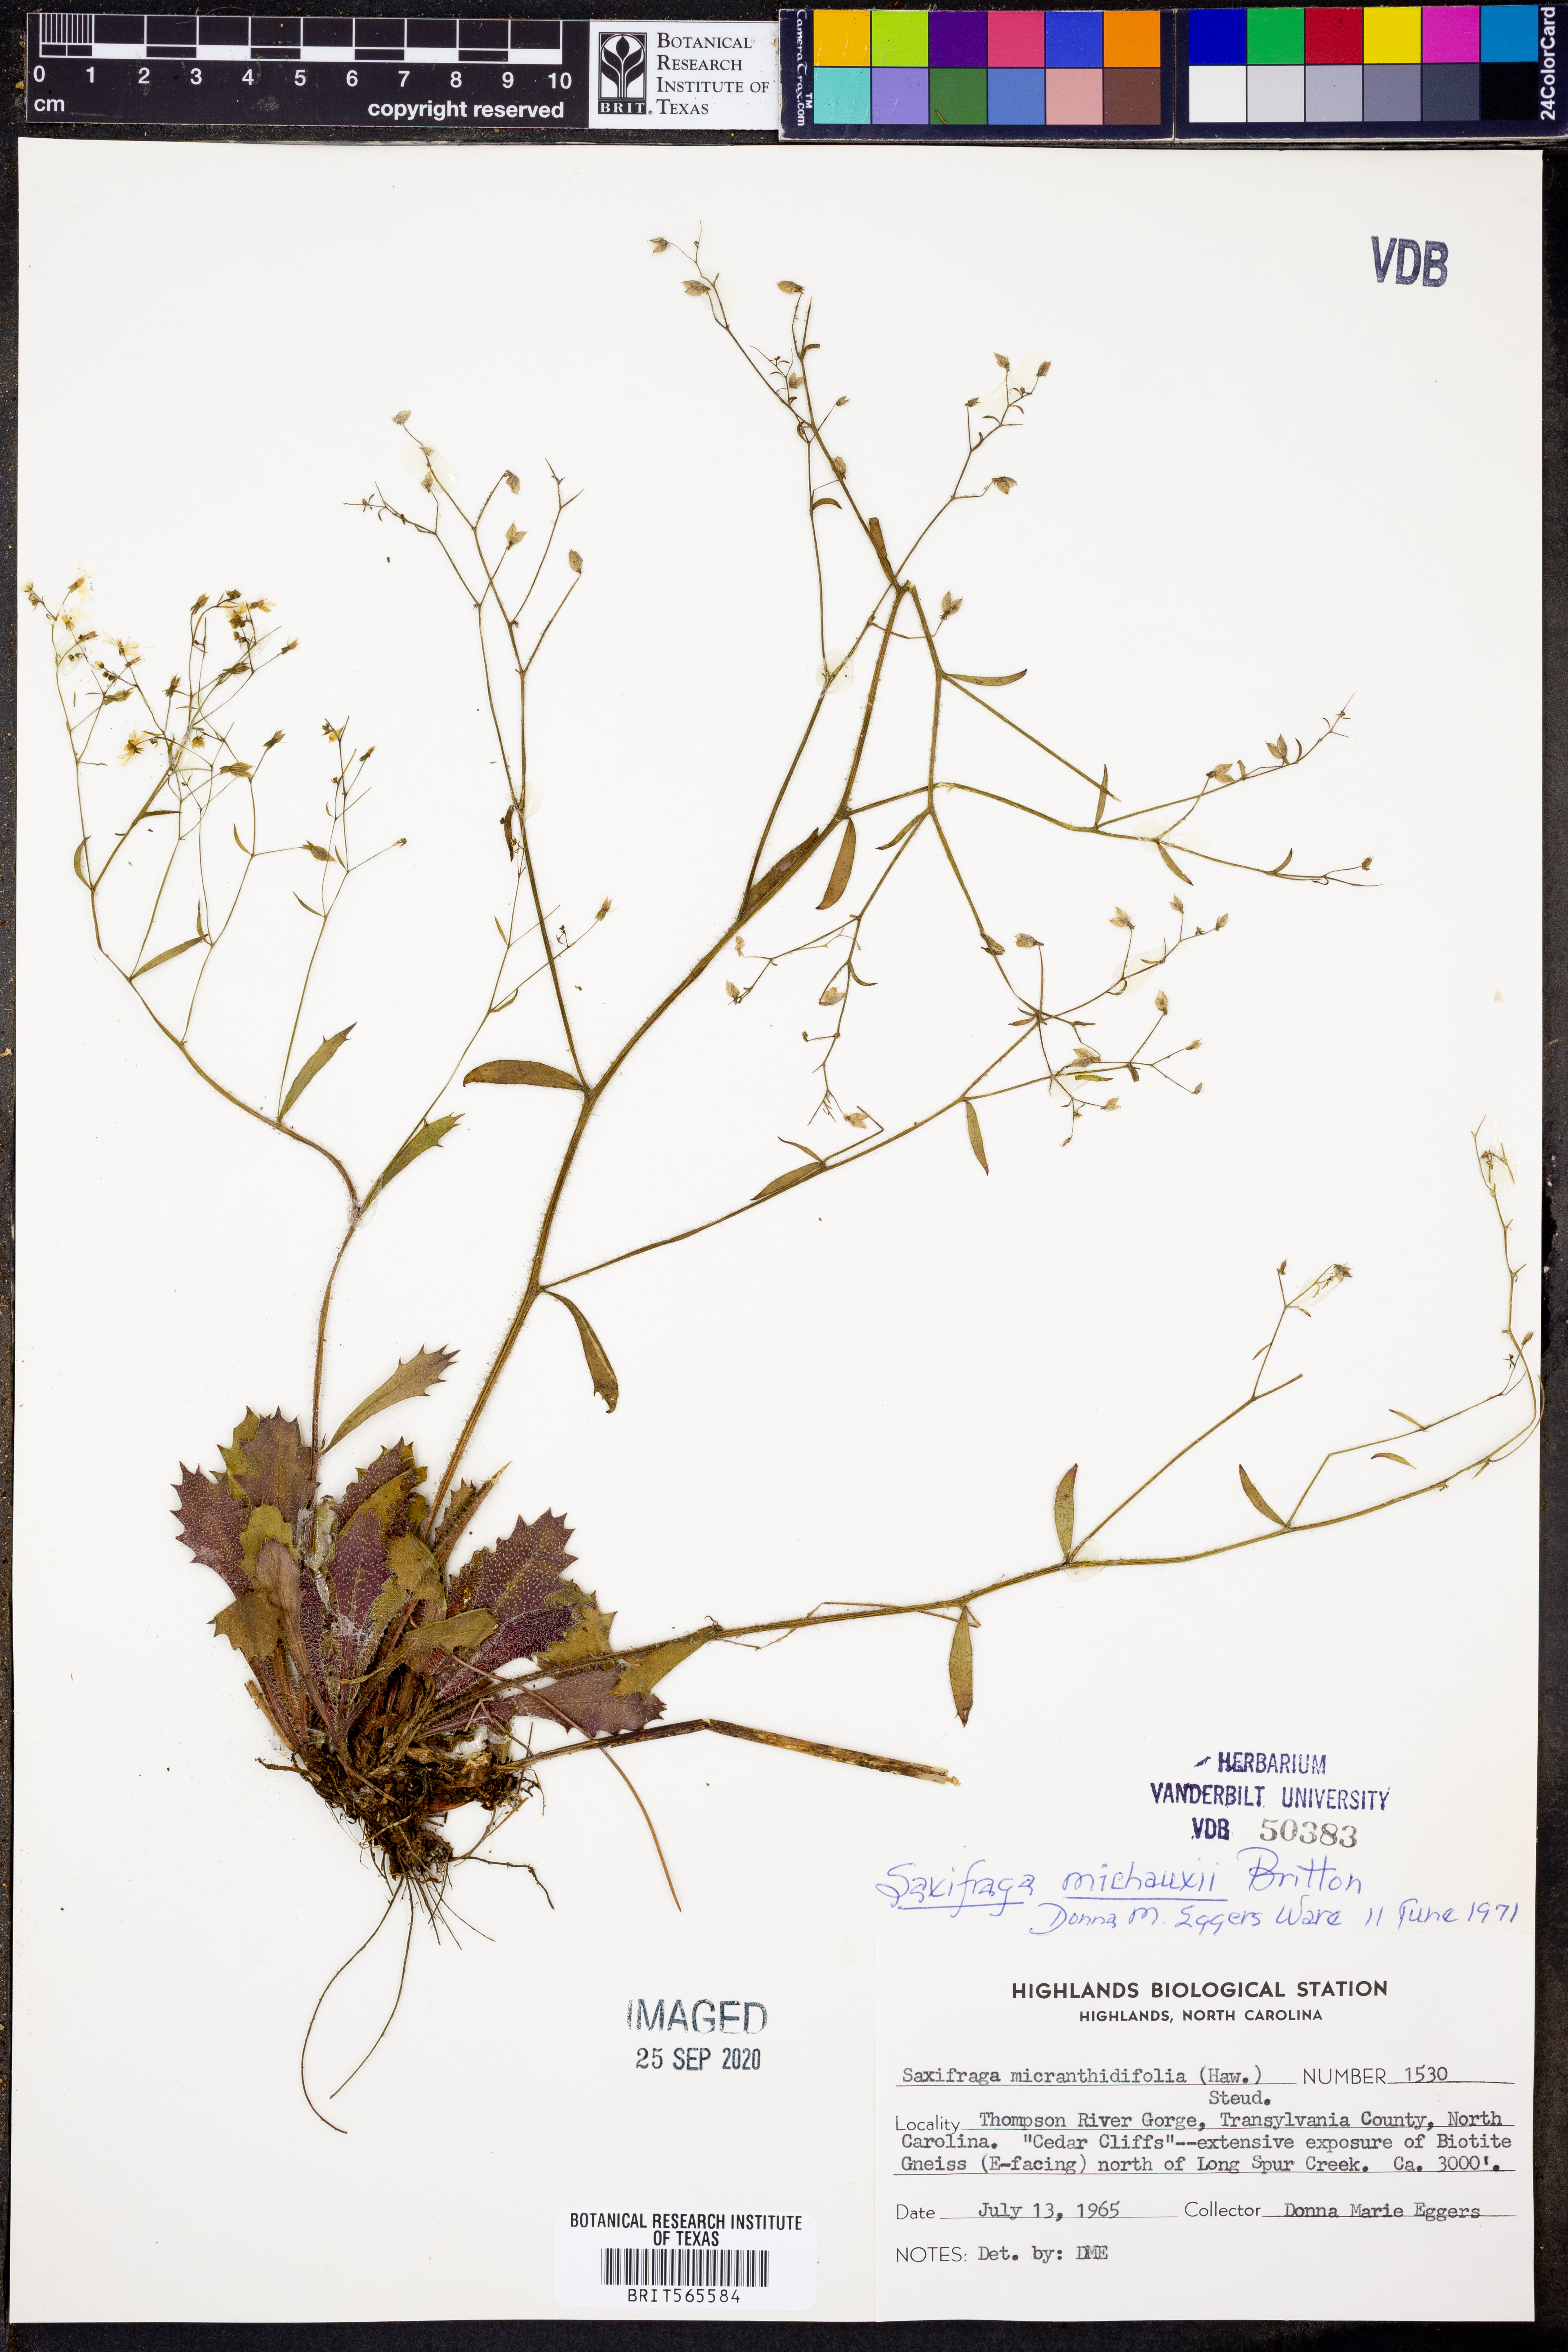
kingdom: Plantae
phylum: Tracheophyta
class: Magnoliopsida
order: Saxifragales
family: Saxifragaceae
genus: Micranthes
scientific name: Micranthes petiolaris
